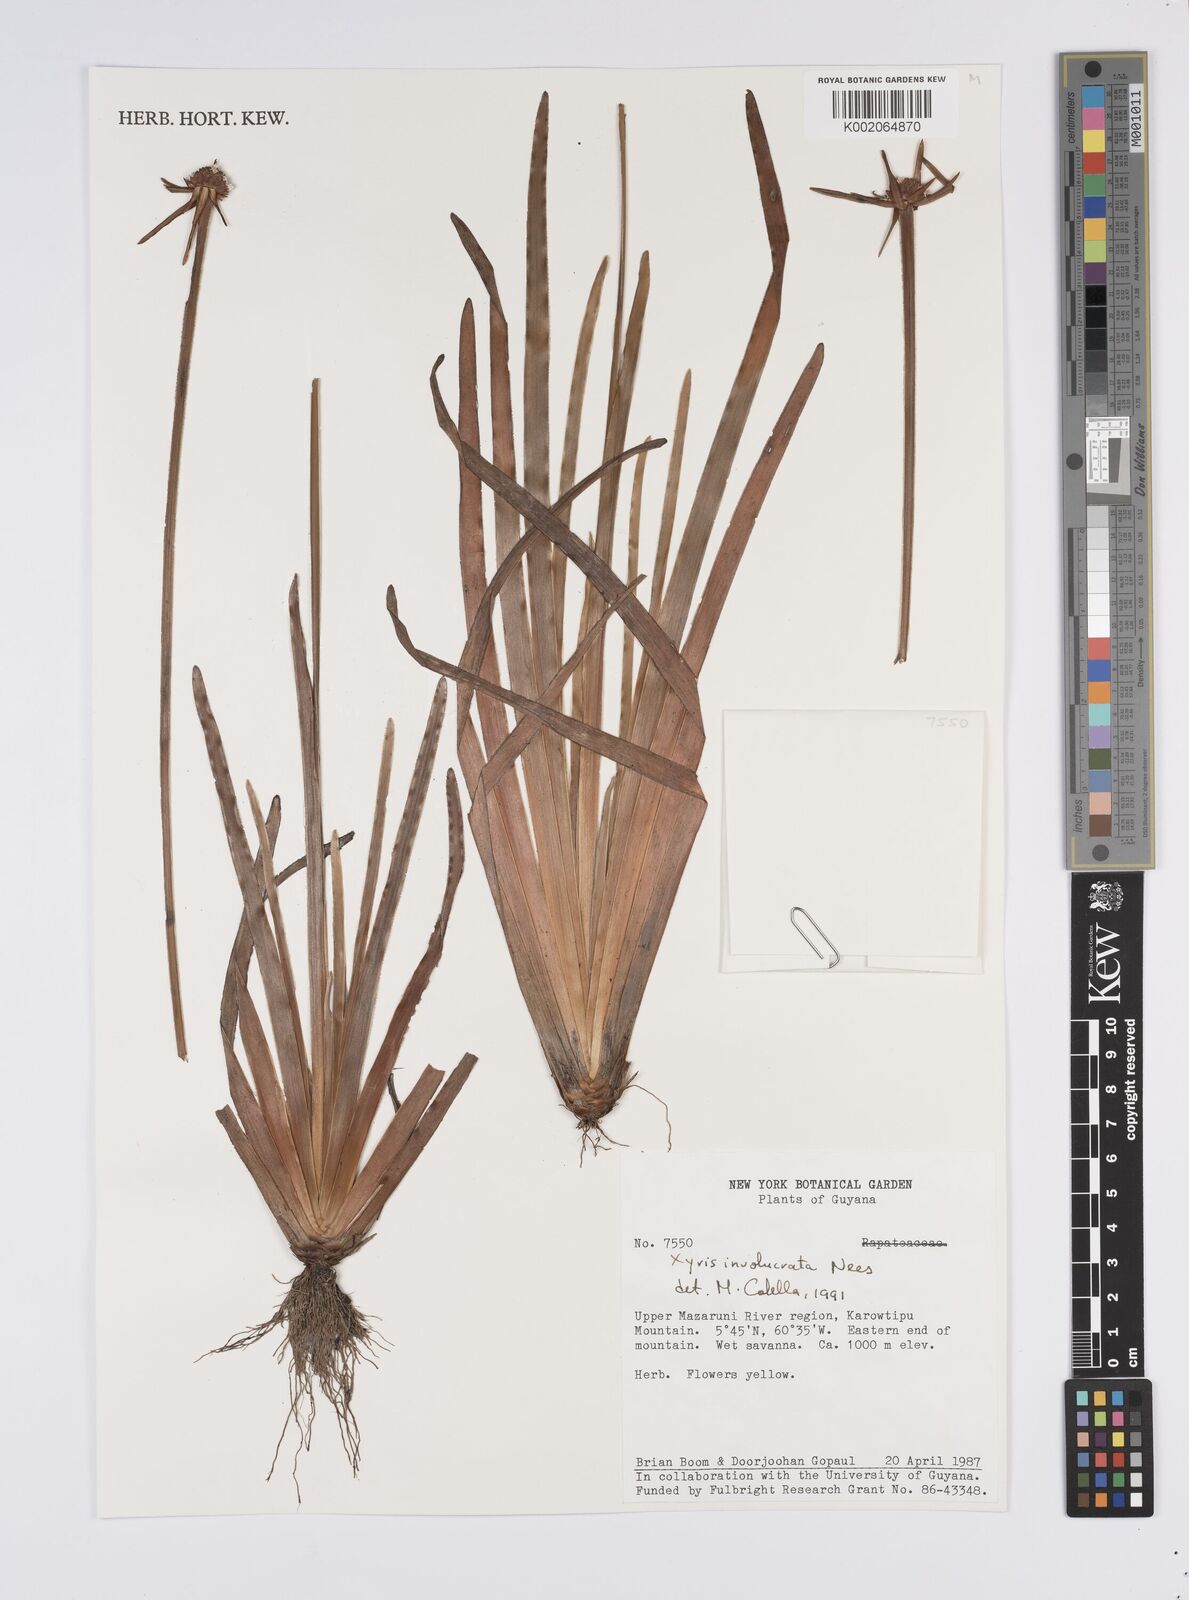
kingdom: Plantae
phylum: Tracheophyta
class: Liliopsida
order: Poales
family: Xyridaceae
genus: Xyris
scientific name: Xyris involucrata
